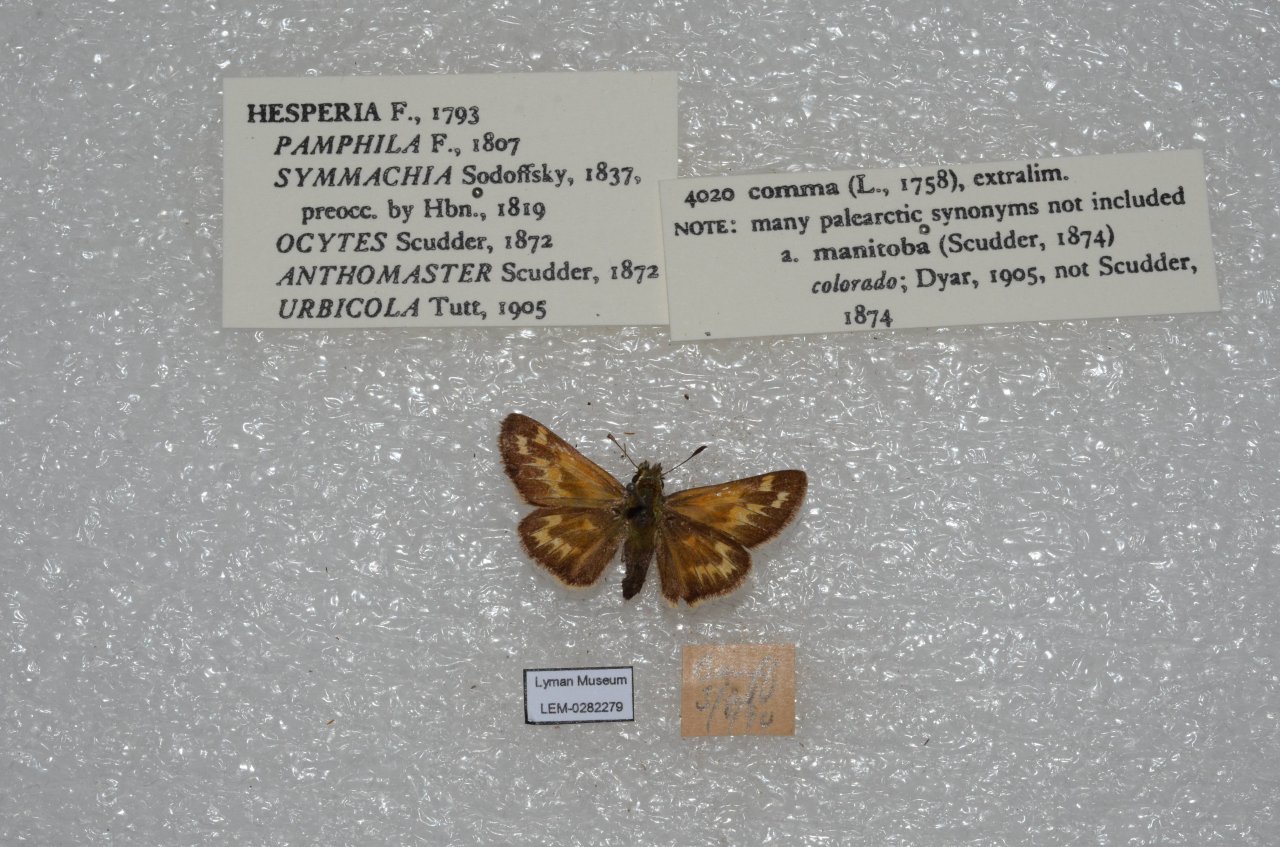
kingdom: Animalia
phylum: Arthropoda
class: Insecta
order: Lepidoptera
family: Hesperiidae
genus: Hesperia
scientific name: Hesperia comma
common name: Common Branded Skipper
